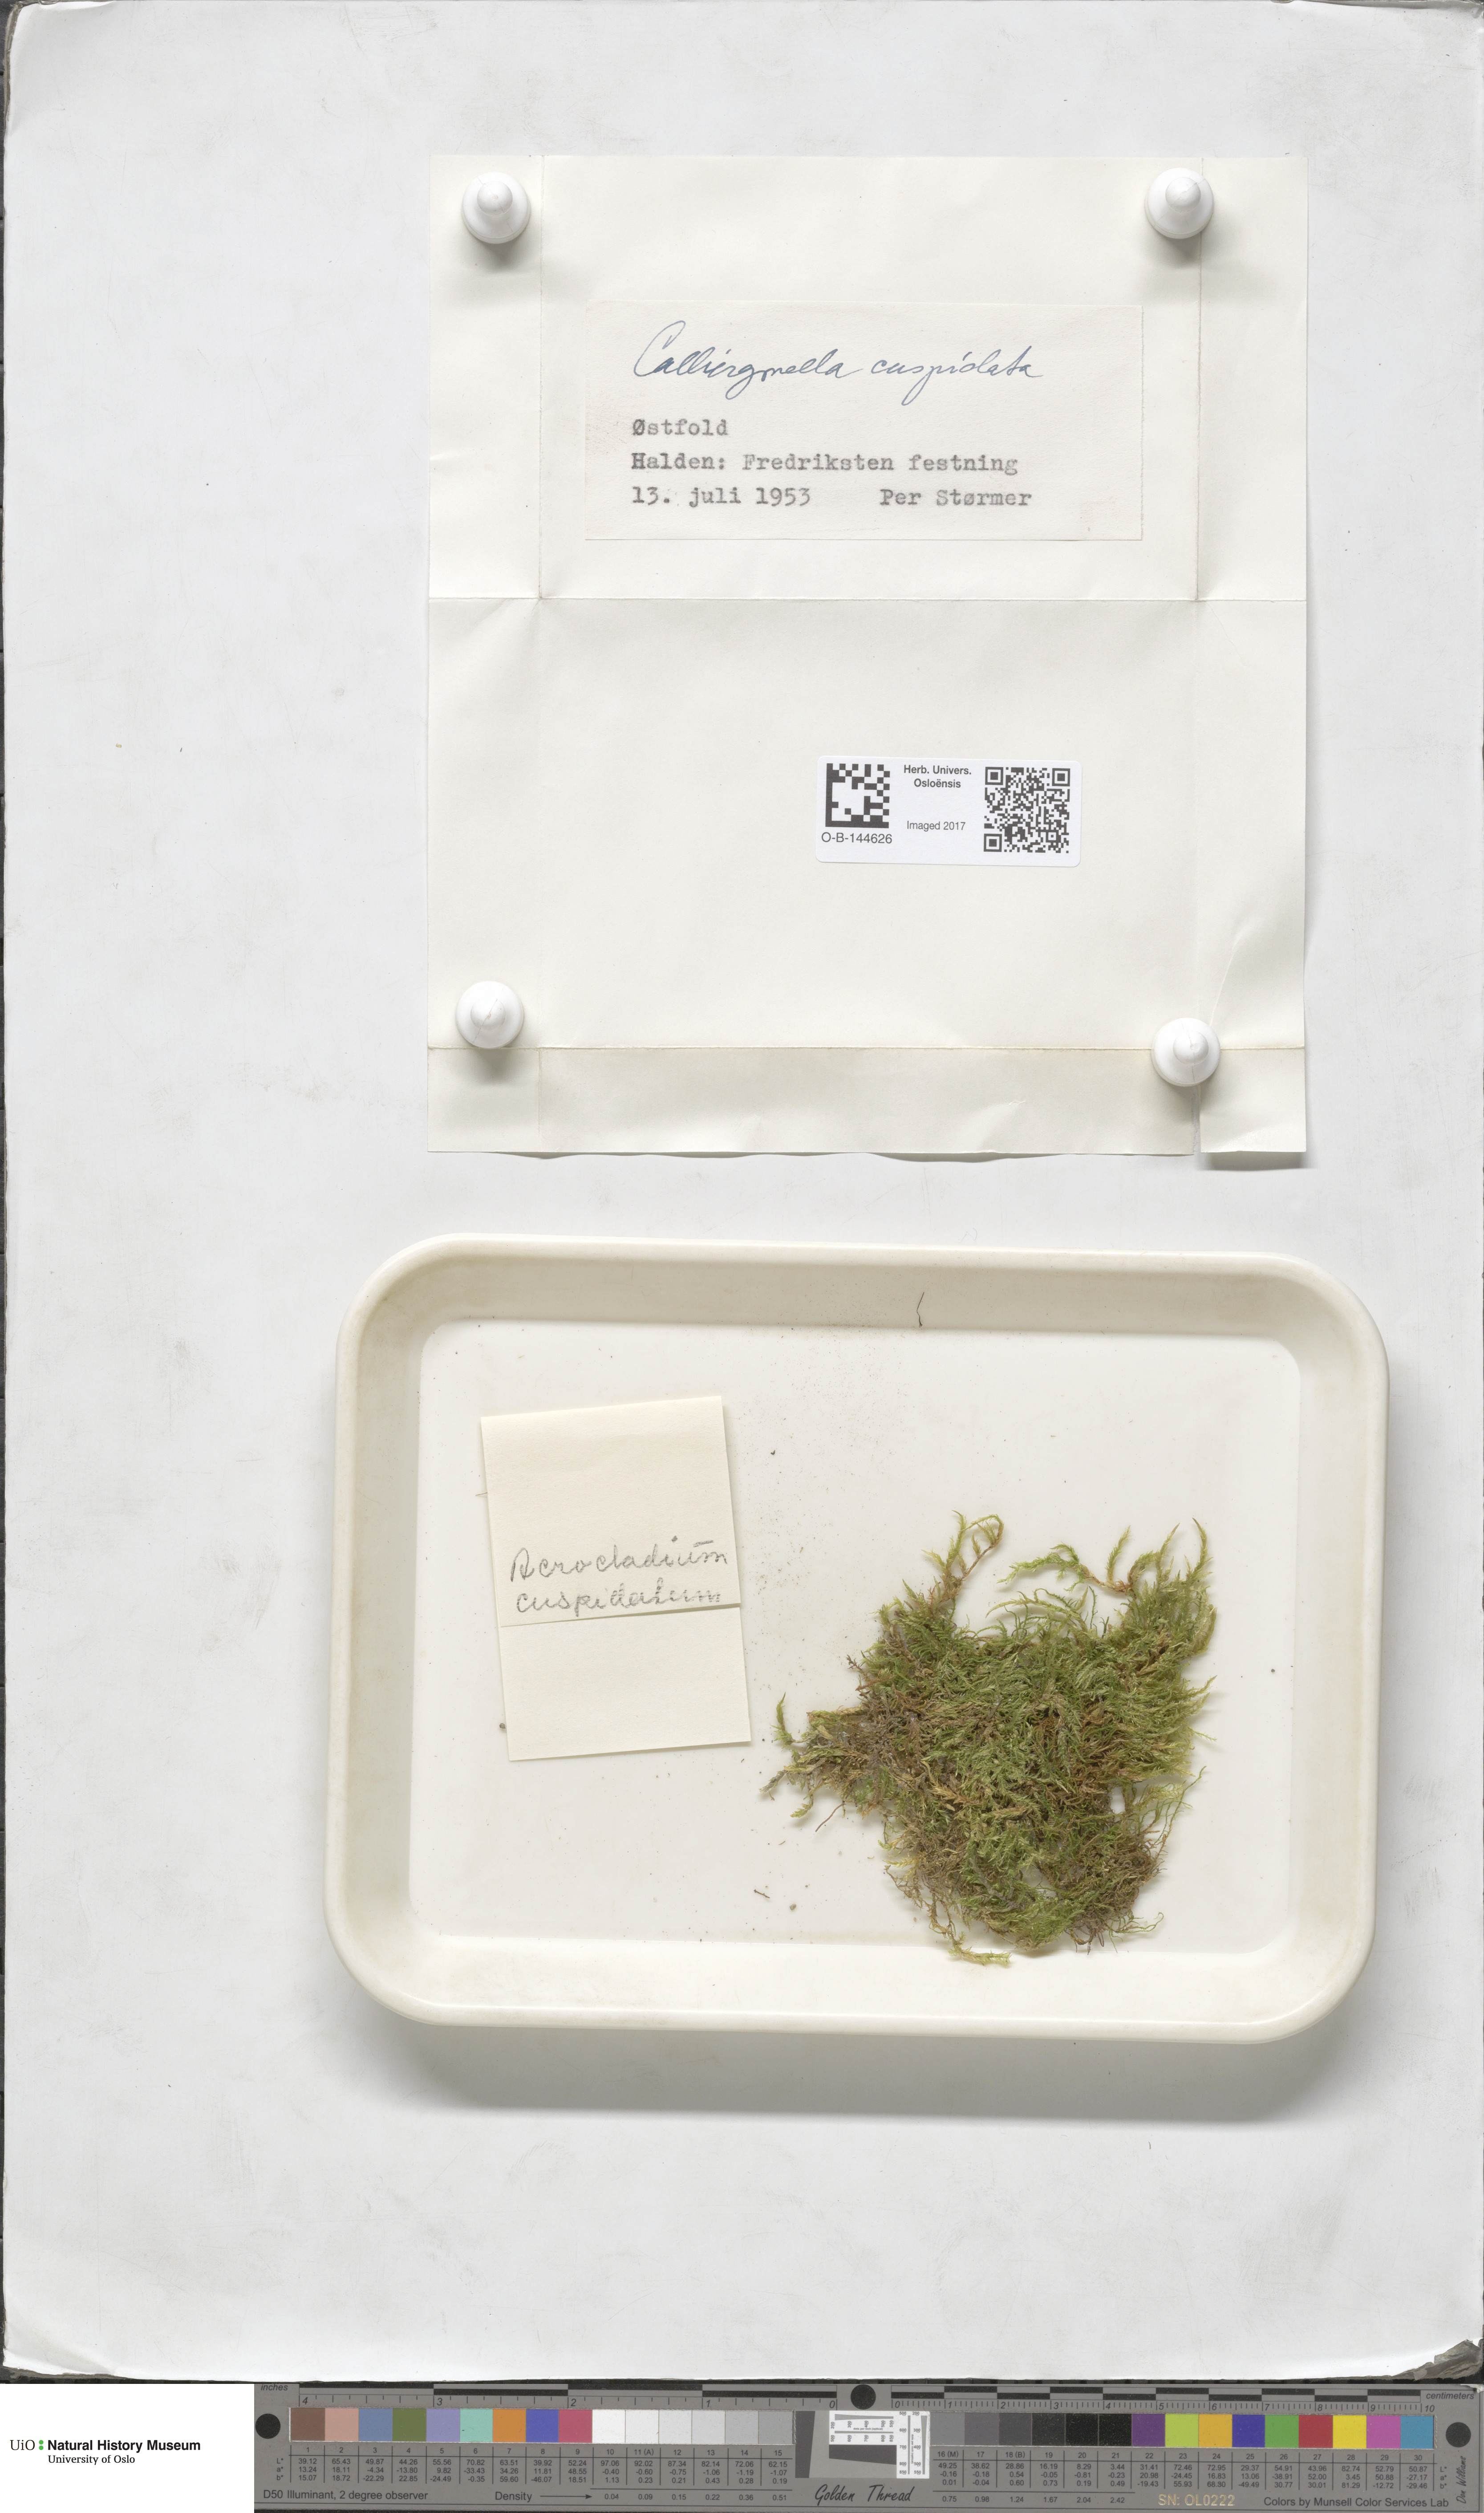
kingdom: Plantae
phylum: Bryophyta
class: Bryopsida
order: Hypnales
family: Pylaisiaceae
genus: Calliergonella
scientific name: Calliergonella cuspidata
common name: Common large wetland moss
